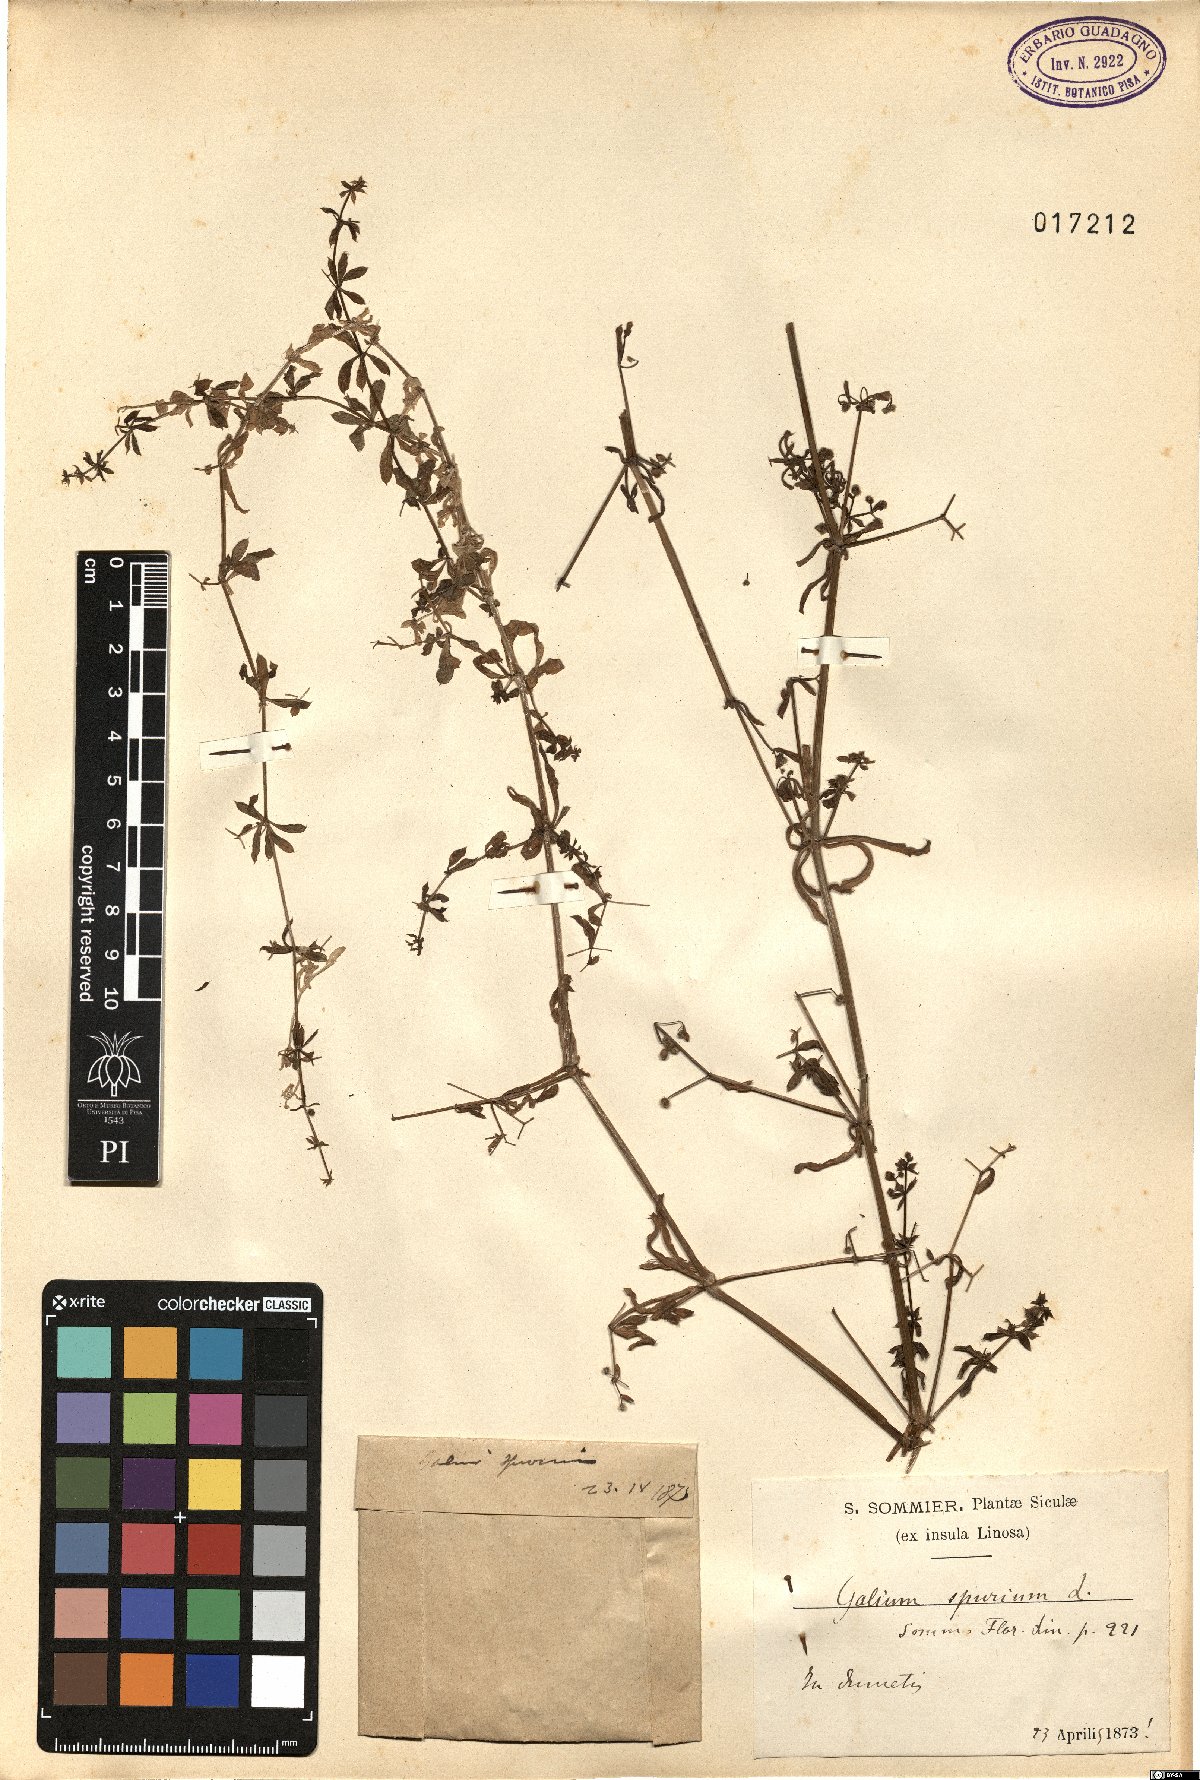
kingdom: Plantae
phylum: Tracheophyta
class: Magnoliopsida
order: Gentianales
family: Rubiaceae
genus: Galium
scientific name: Galium spurium
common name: False cleavers
